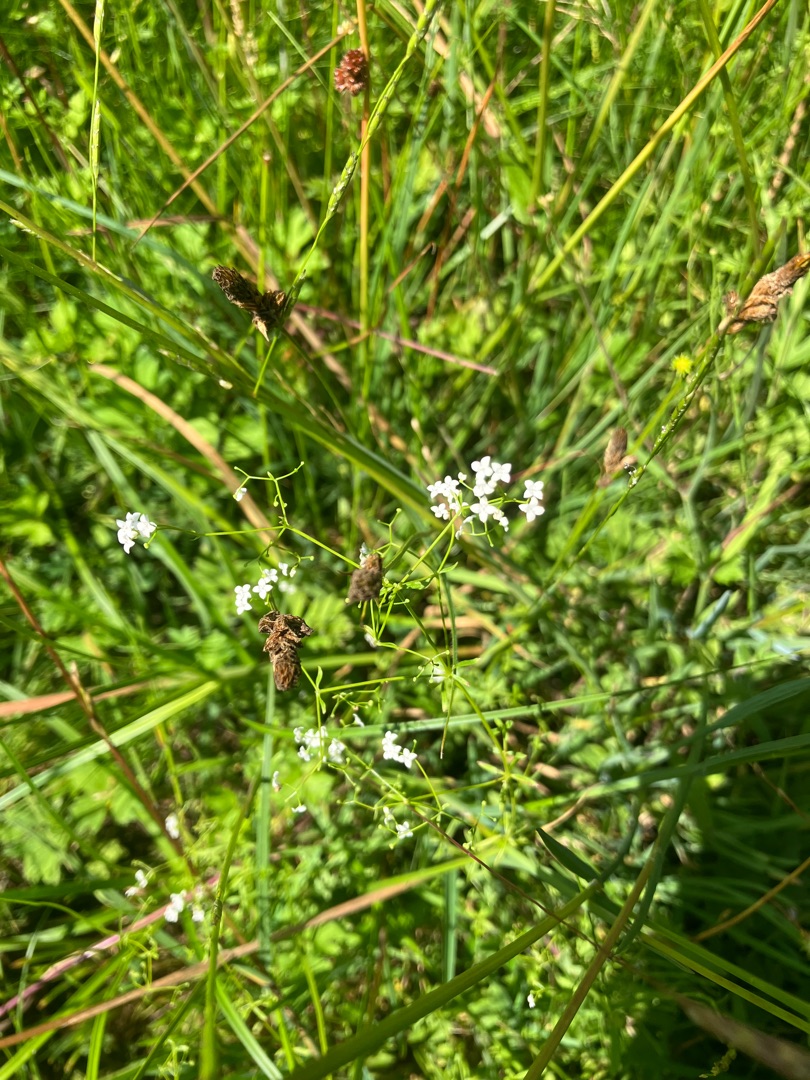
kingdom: Plantae
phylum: Tracheophyta
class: Magnoliopsida
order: Gentianales
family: Rubiaceae
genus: Galium
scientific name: Galium palustre
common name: Kær-snerre
